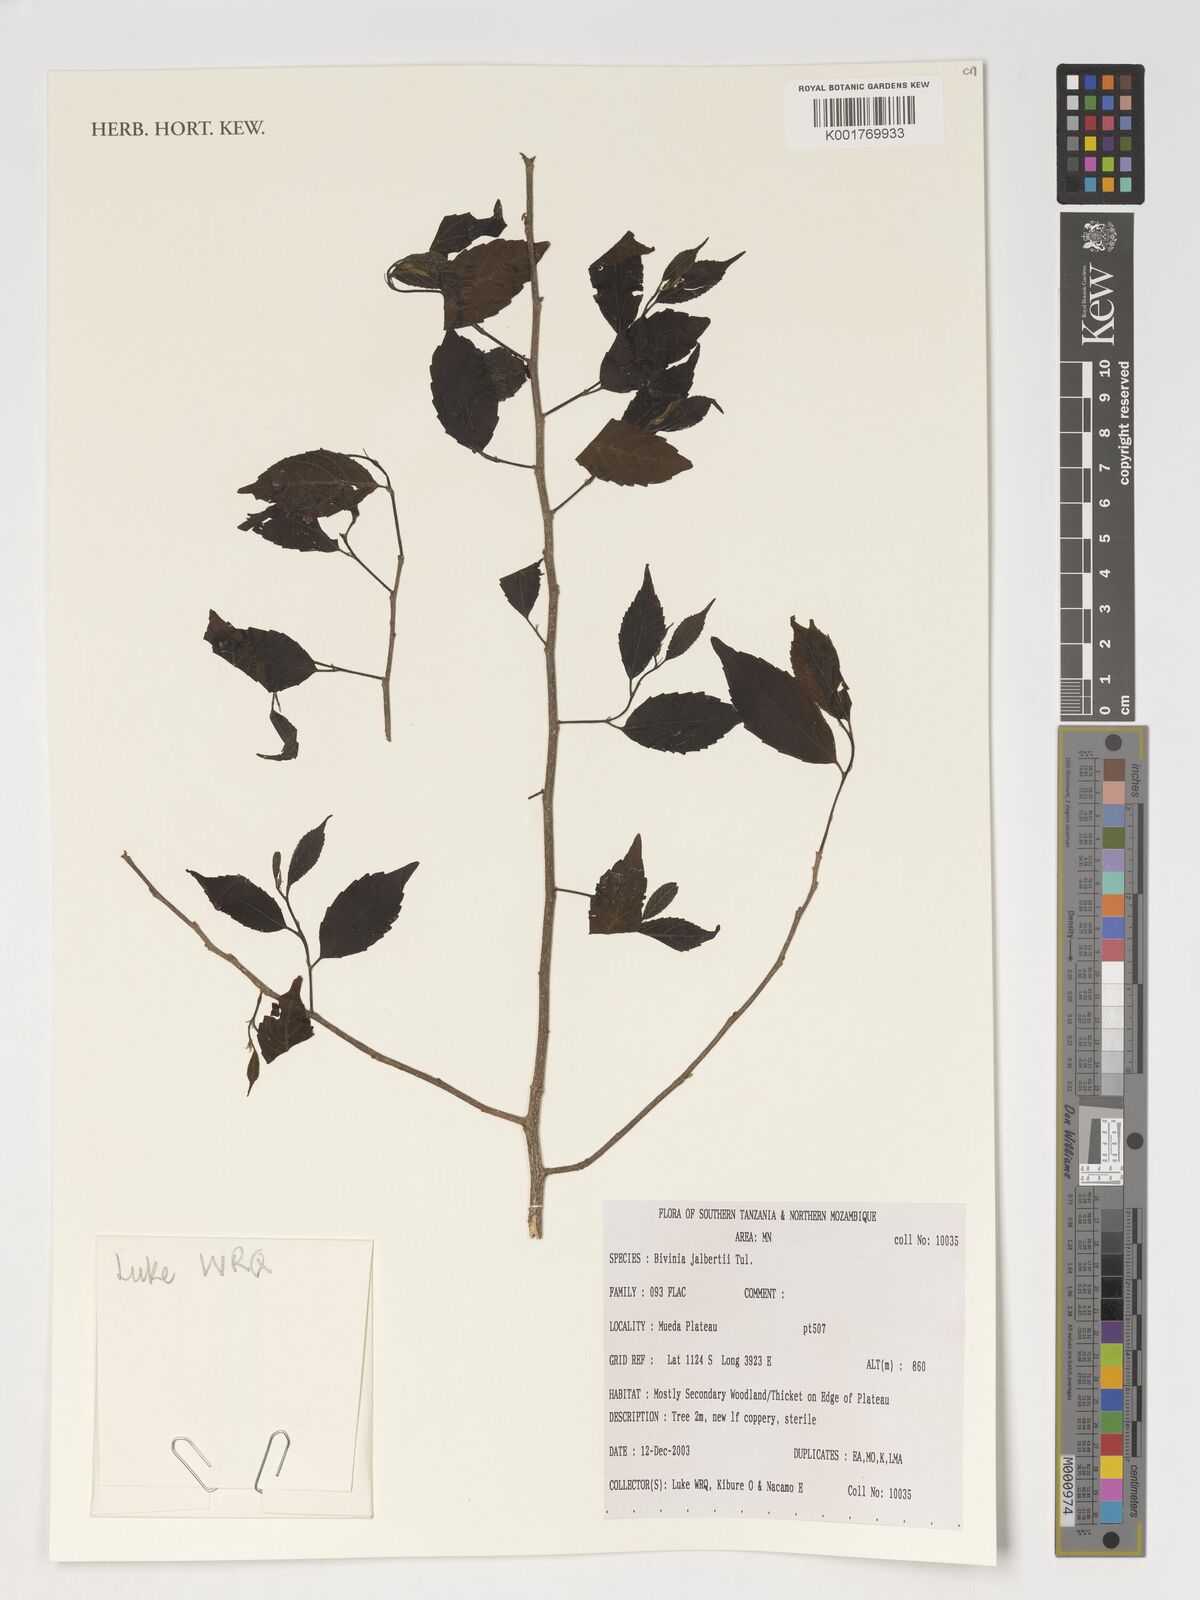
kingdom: Plantae
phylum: Tracheophyta
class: Magnoliopsida
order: Malpighiales
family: Salicaceae
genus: Bivinia
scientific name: Bivinia jalbertii
